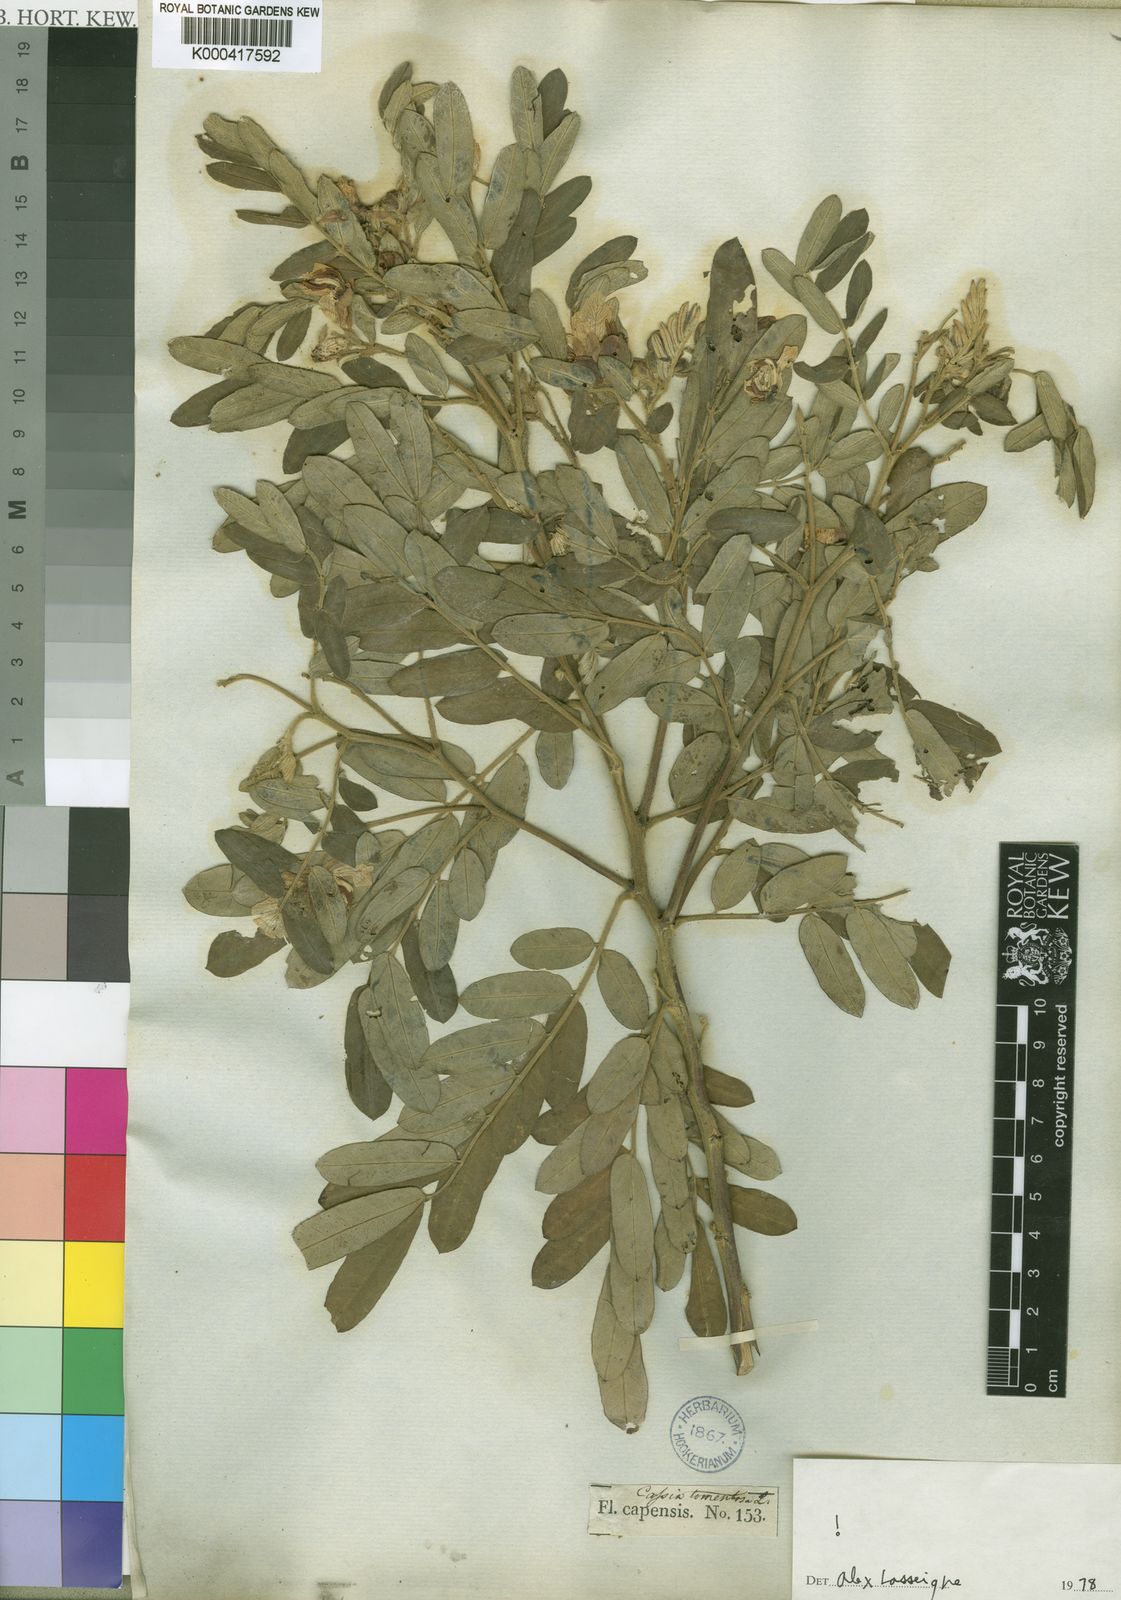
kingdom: Plantae
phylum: Tracheophyta
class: Magnoliopsida
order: Fabales
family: Fabaceae
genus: Senna
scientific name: Senna multiglandulosa
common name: Glandular senna
